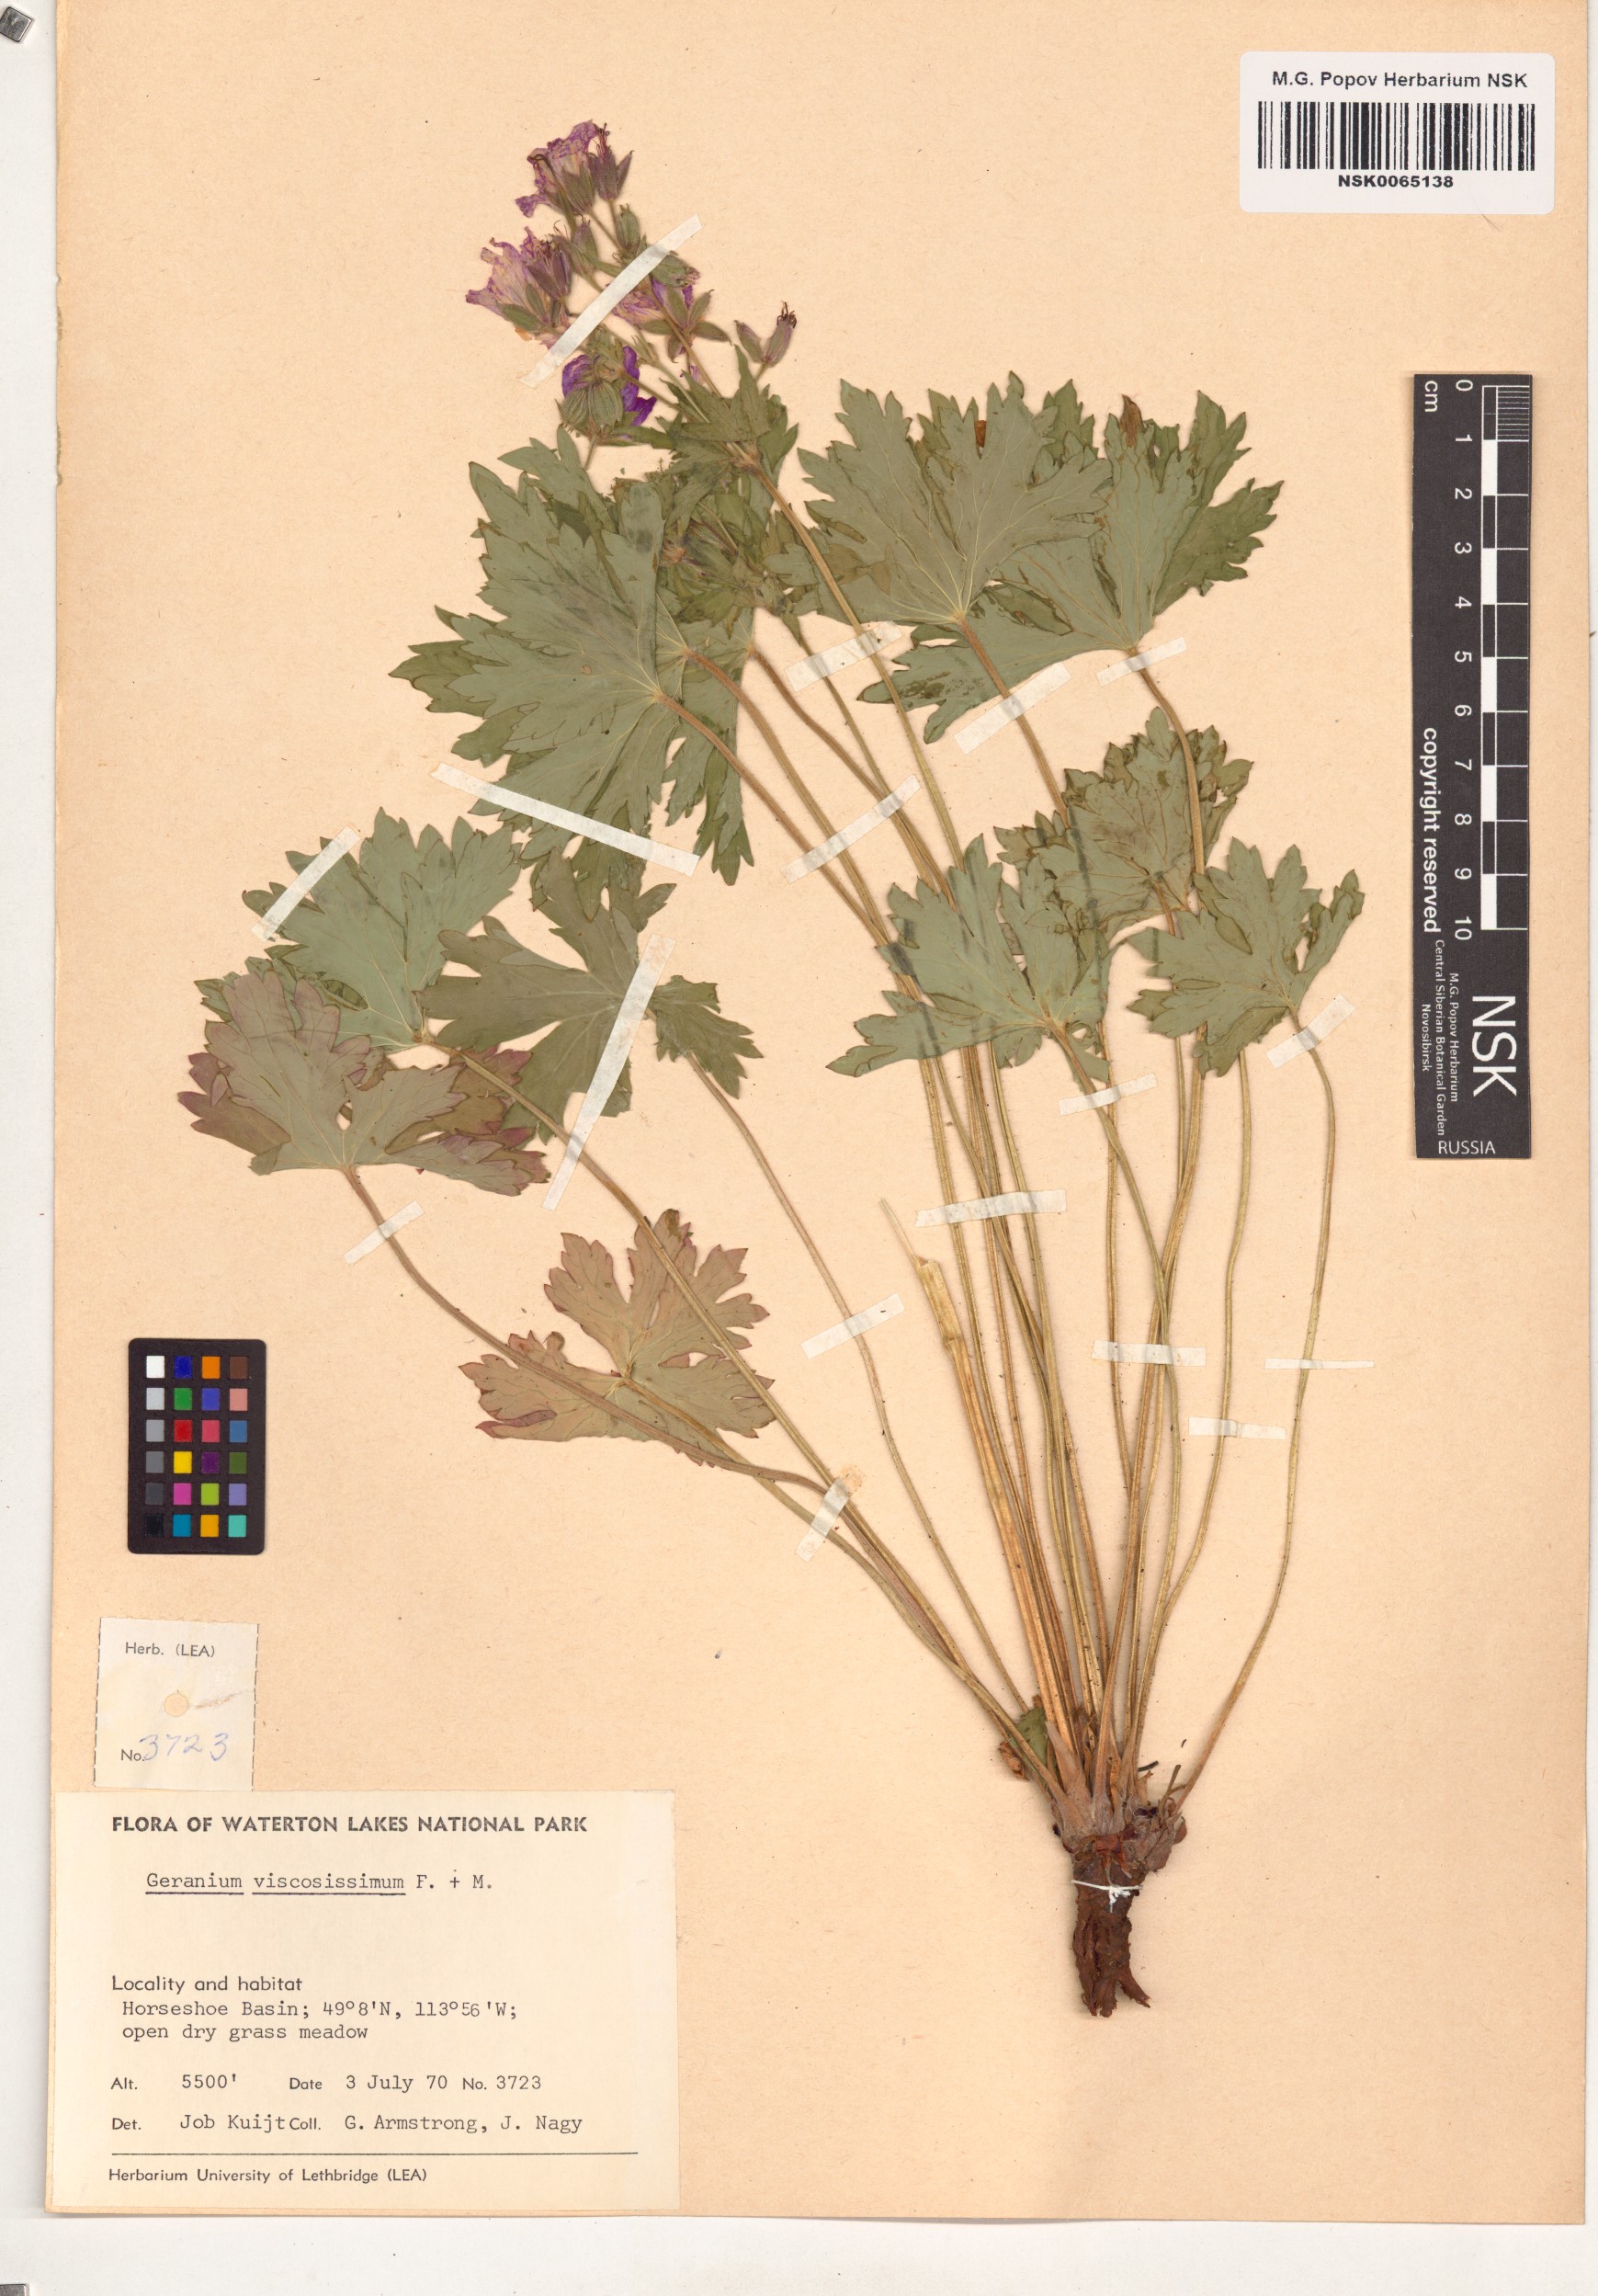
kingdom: Plantae
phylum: Tracheophyta
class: Magnoliopsida
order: Geraniales
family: Geraniaceae
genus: Geranium
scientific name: Geranium viscosissimum
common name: Purple geranium
